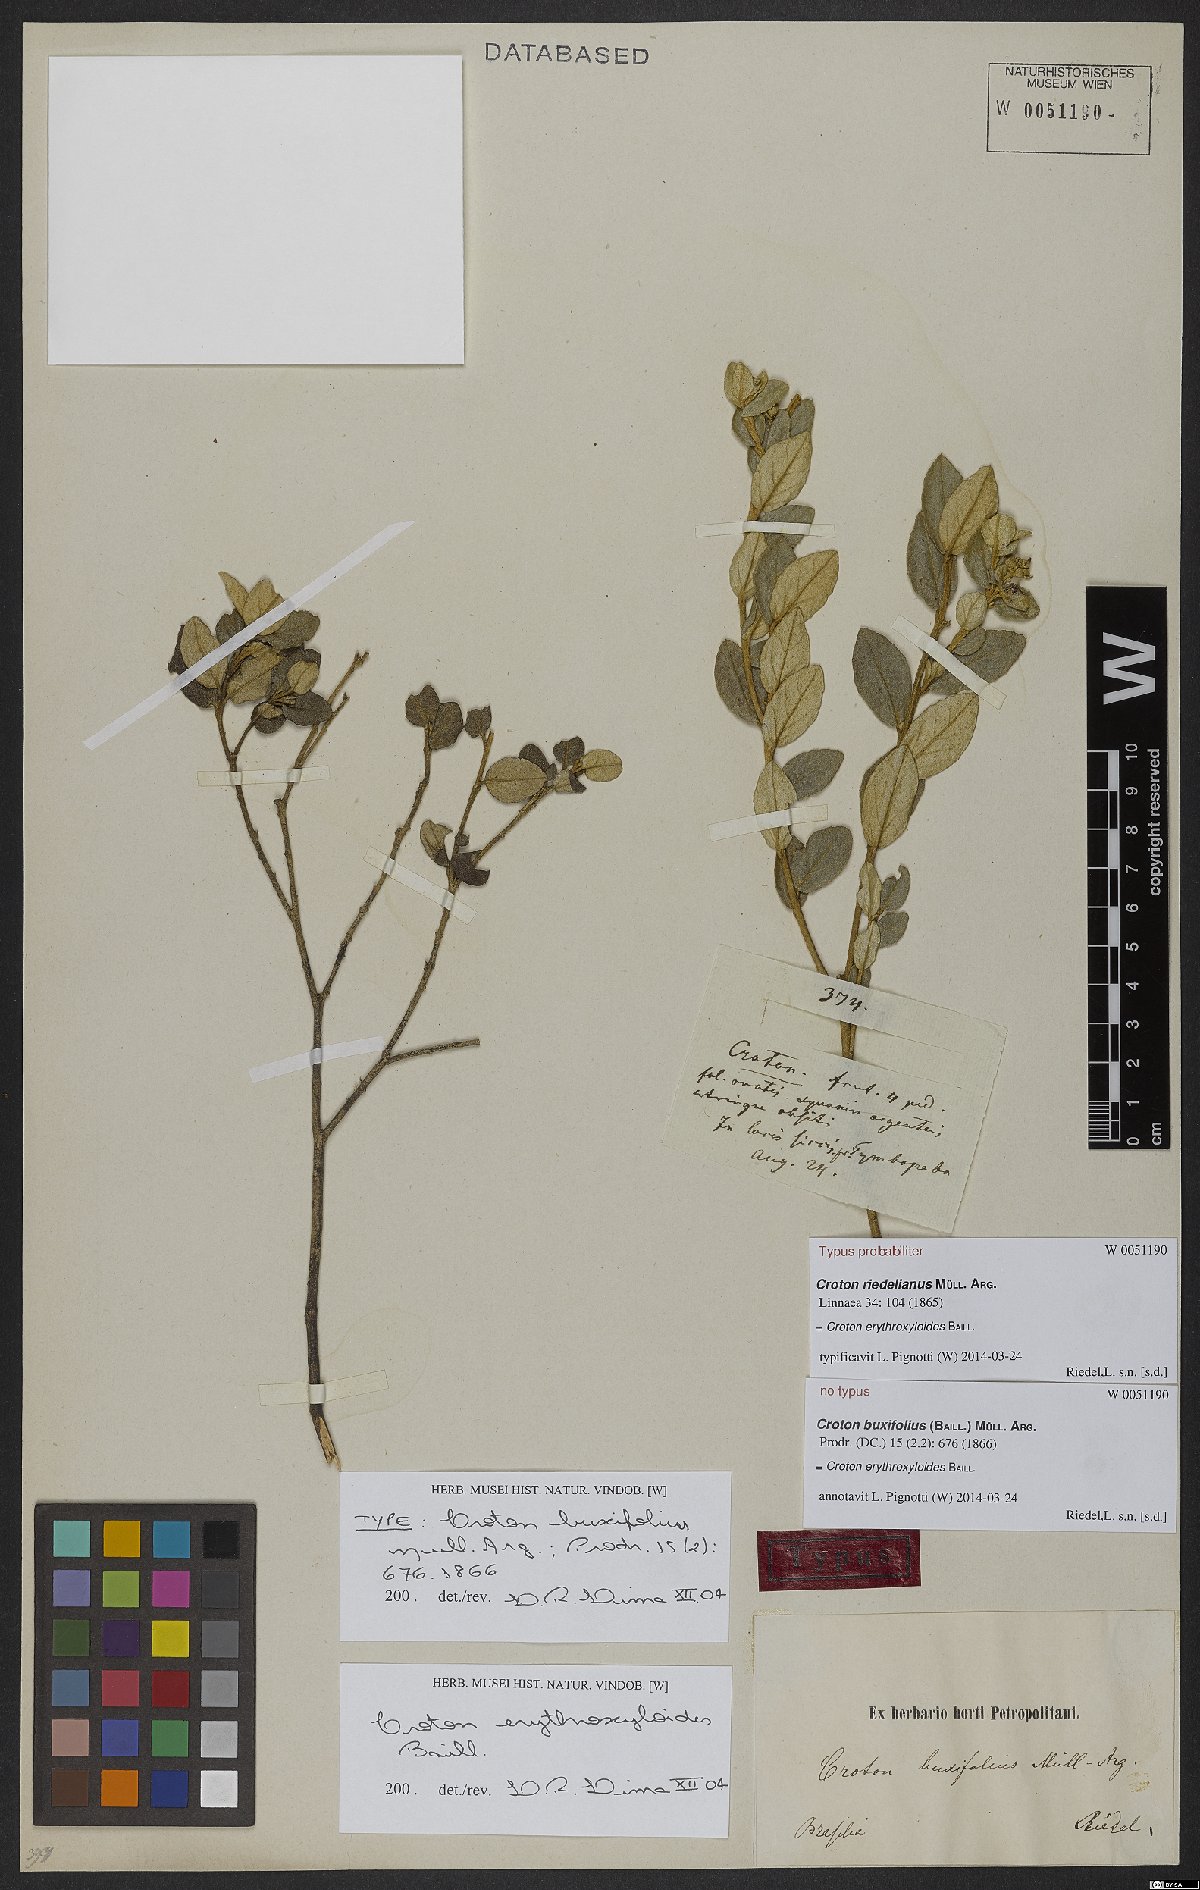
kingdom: Plantae
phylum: Tracheophyta
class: Liliopsida
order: Asparagales
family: Orchidaceae
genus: Habenaria
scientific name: Habenaria macronectar
